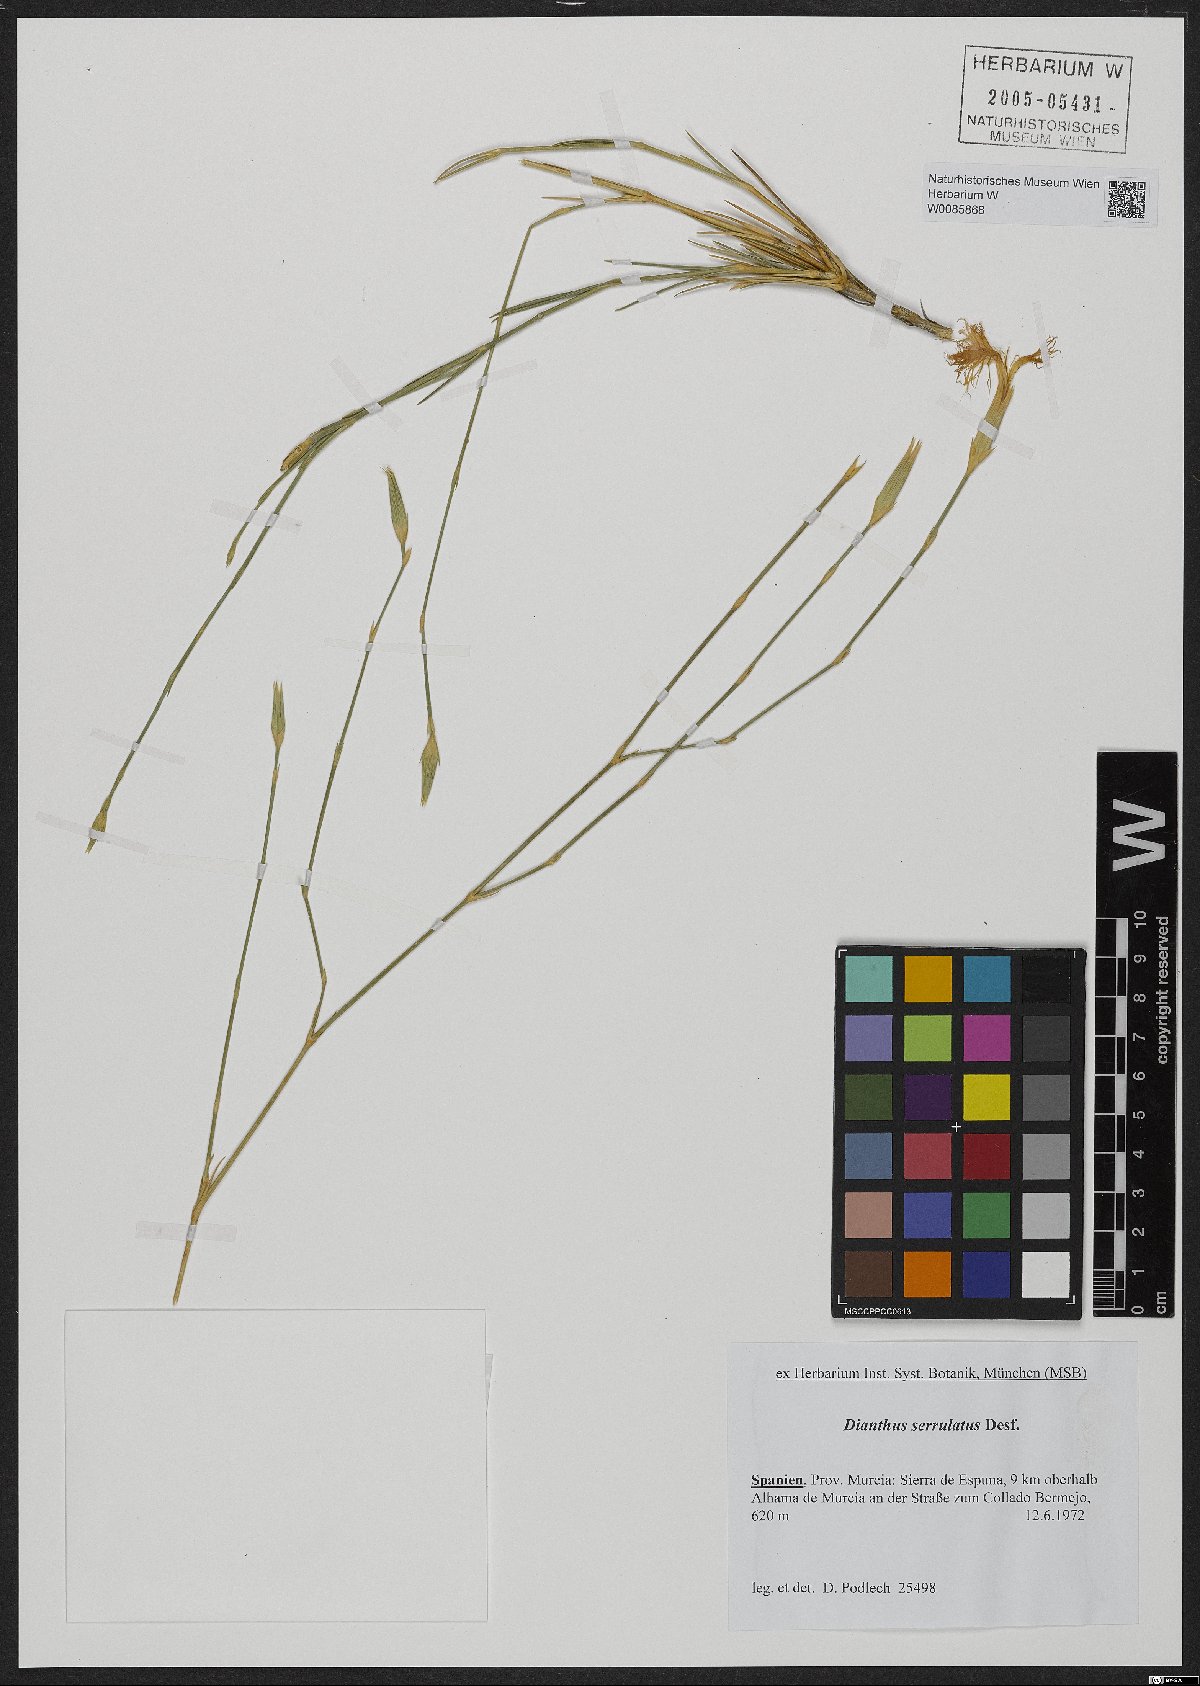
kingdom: Plantae
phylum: Tracheophyta
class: Magnoliopsida
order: Caryophyllales
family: Caryophyllaceae
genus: Dianthus
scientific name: Dianthus serrulatus
